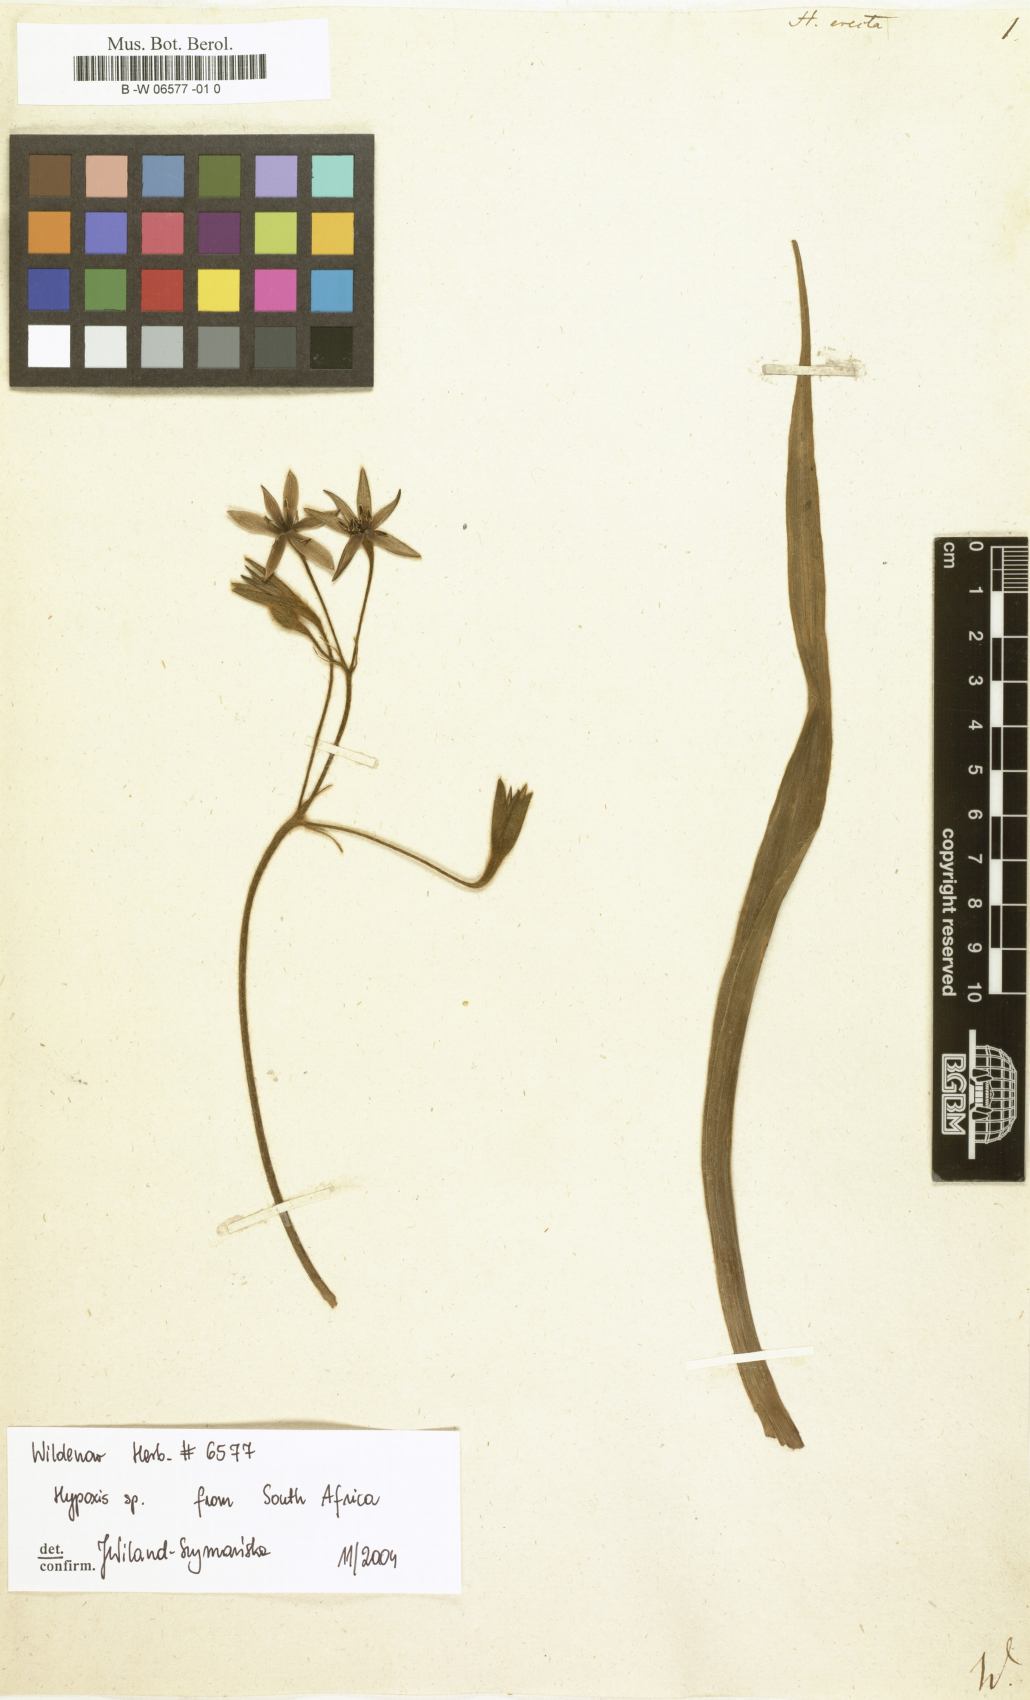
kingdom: Plantae
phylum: Tracheophyta
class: Liliopsida
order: Asparagales
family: Hypoxidaceae
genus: Hypoxis
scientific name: Hypoxis hirsuta
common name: Common goldstar
